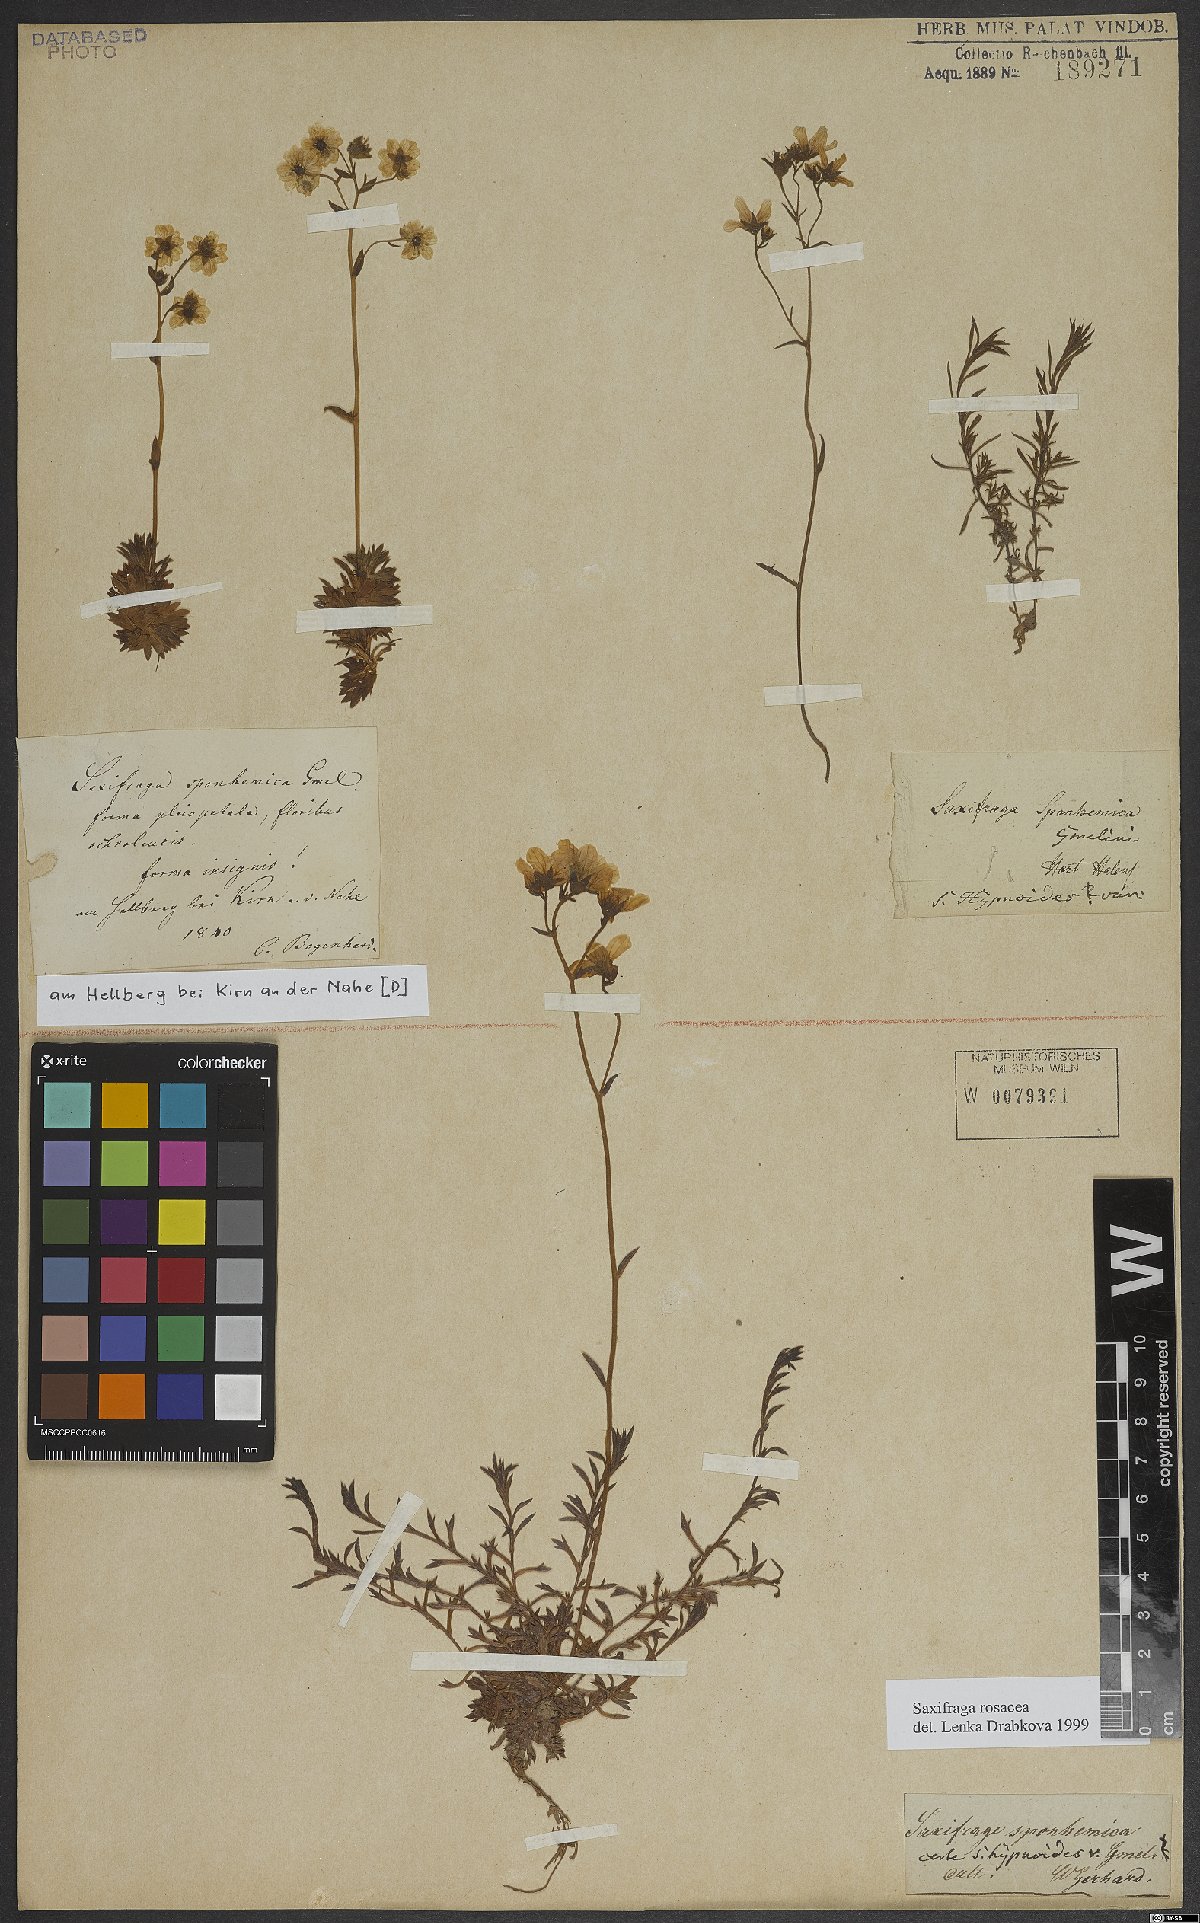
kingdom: Plantae
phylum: Tracheophyta
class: Magnoliopsida
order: Saxifragales
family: Saxifragaceae
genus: Saxifraga
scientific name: Saxifraga rosacea
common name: Irish saxifrage
